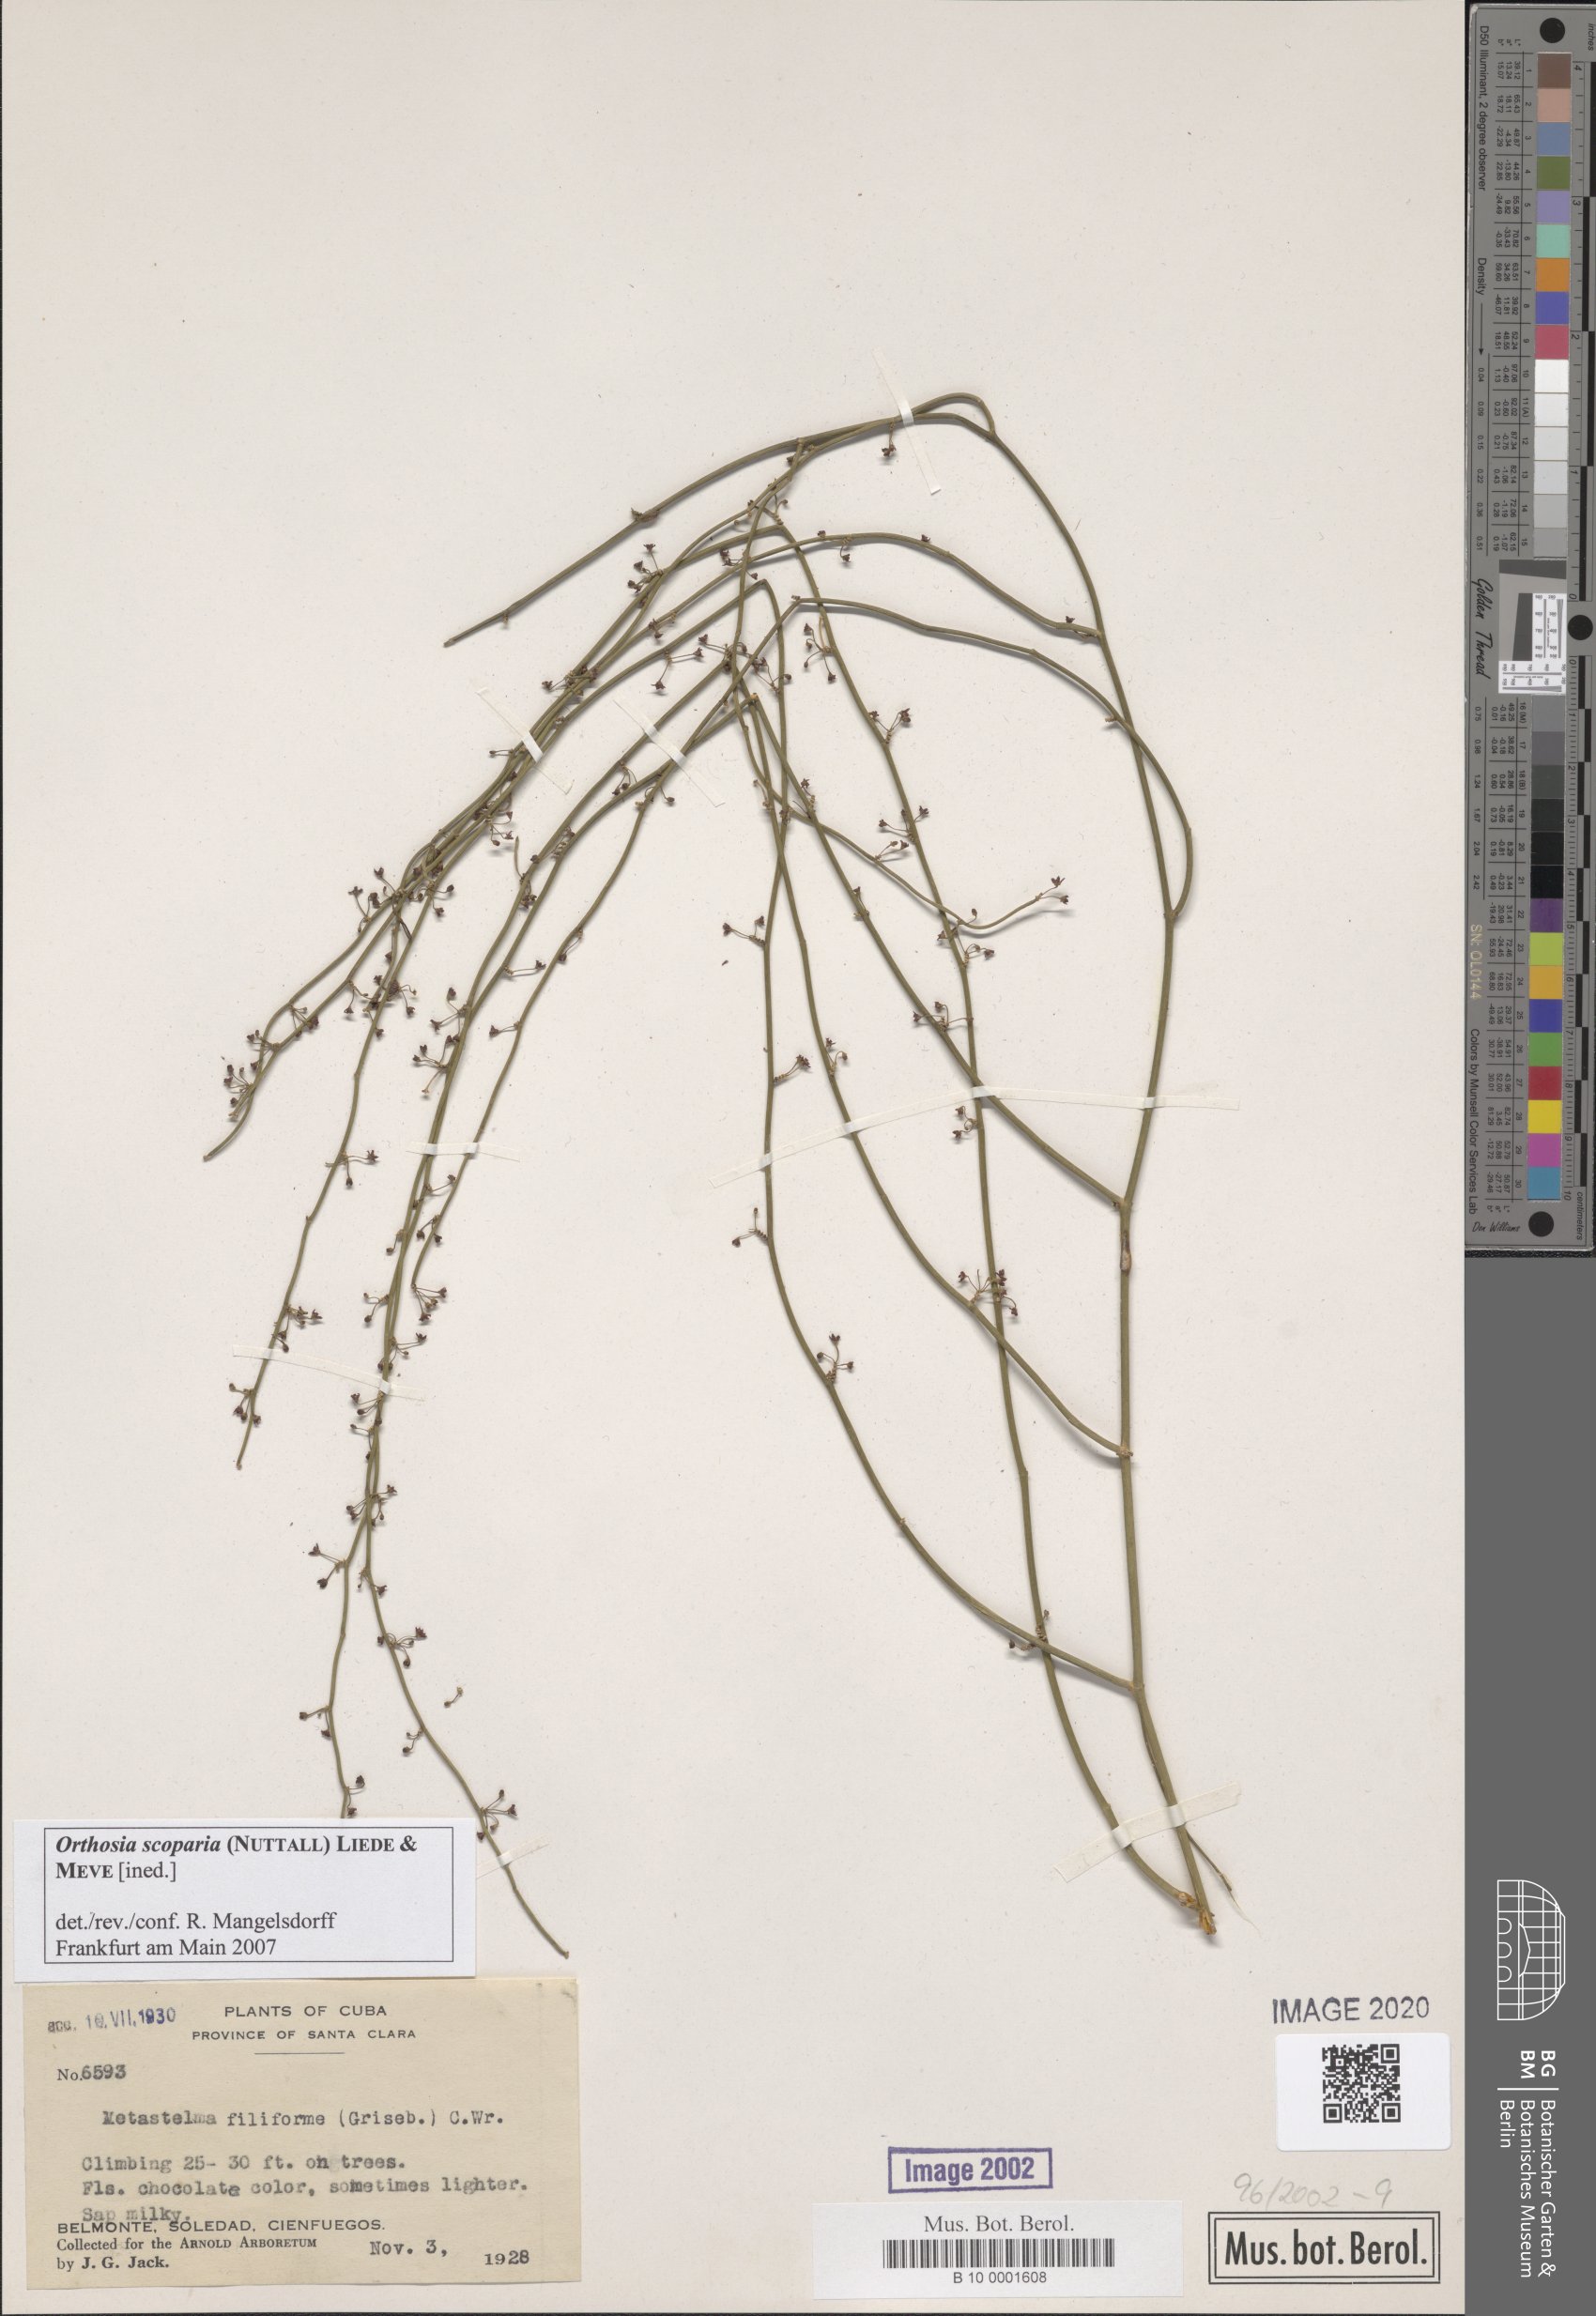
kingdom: Plantae
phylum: Tracheophyta
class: Magnoliopsida
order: Gentianales
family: Apocynaceae
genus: Orthosia
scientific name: Orthosia scoparia
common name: Leafless swallow-wort
